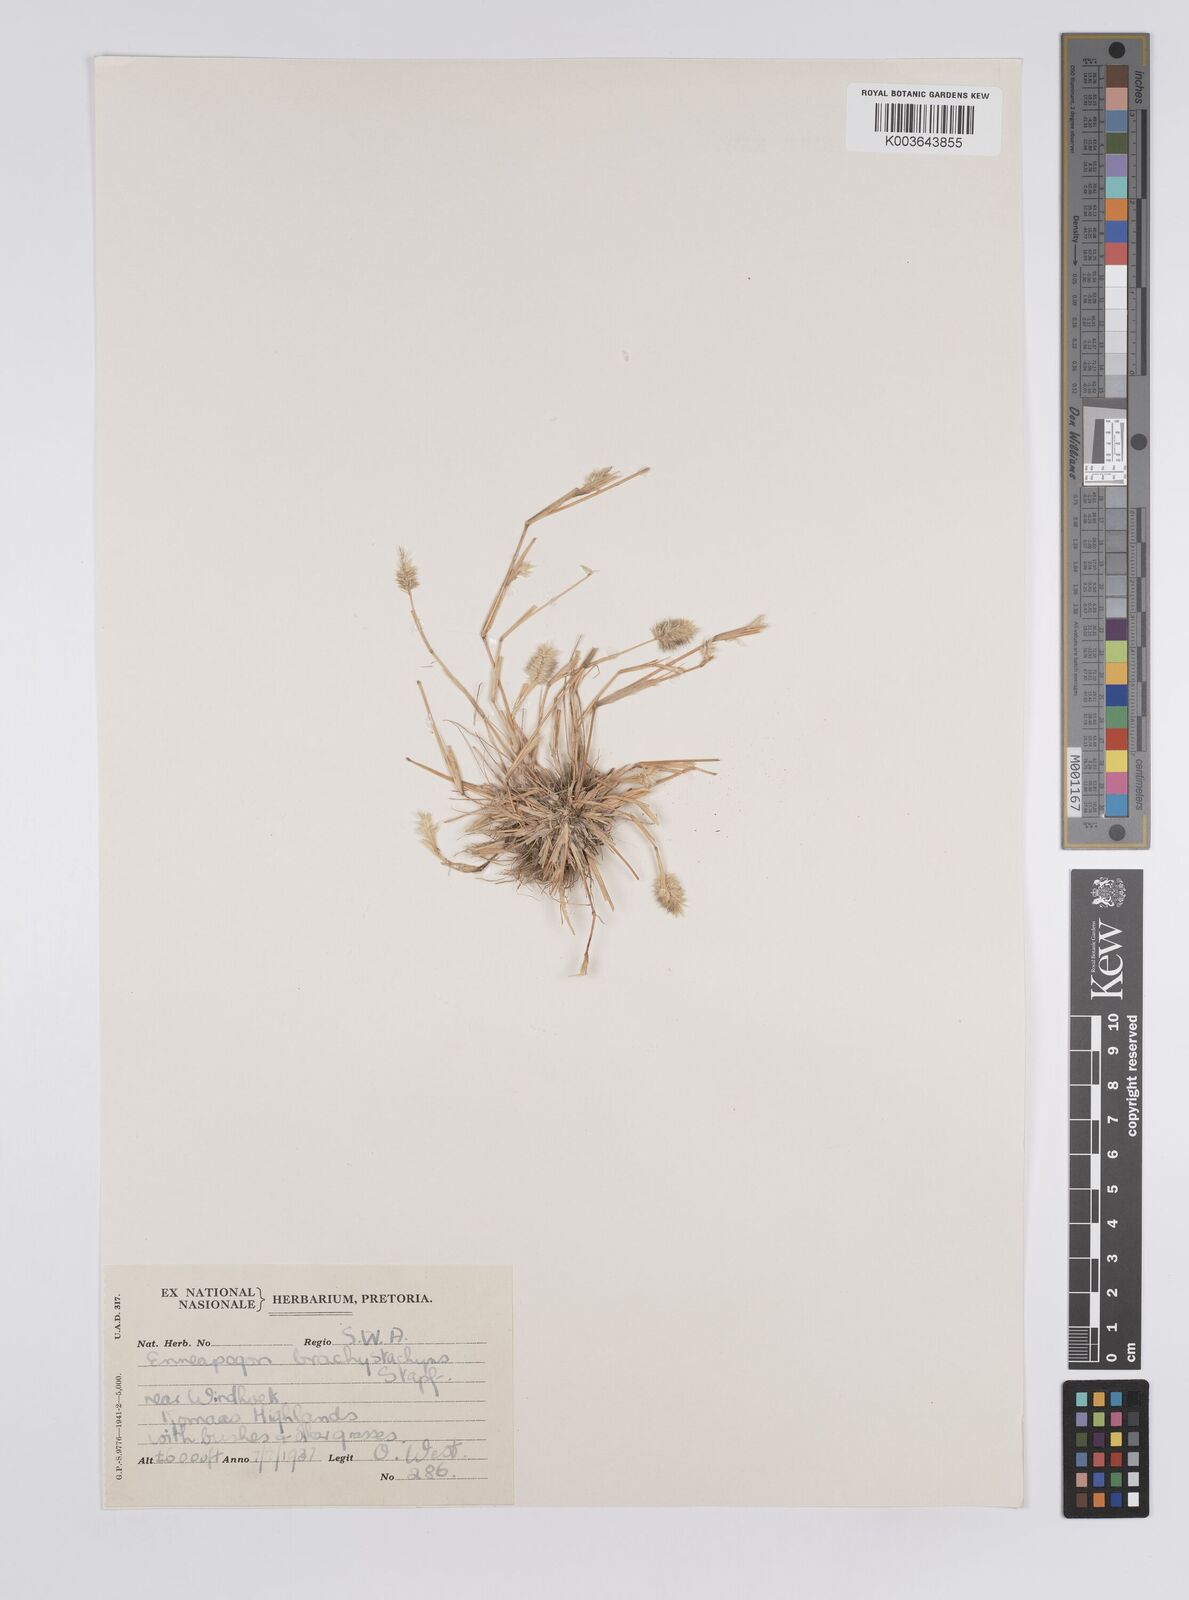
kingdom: Plantae
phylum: Tracheophyta
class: Liliopsida
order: Poales
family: Poaceae
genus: Enneapogon
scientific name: Enneapogon desvauxii
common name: Feather pappus grass
